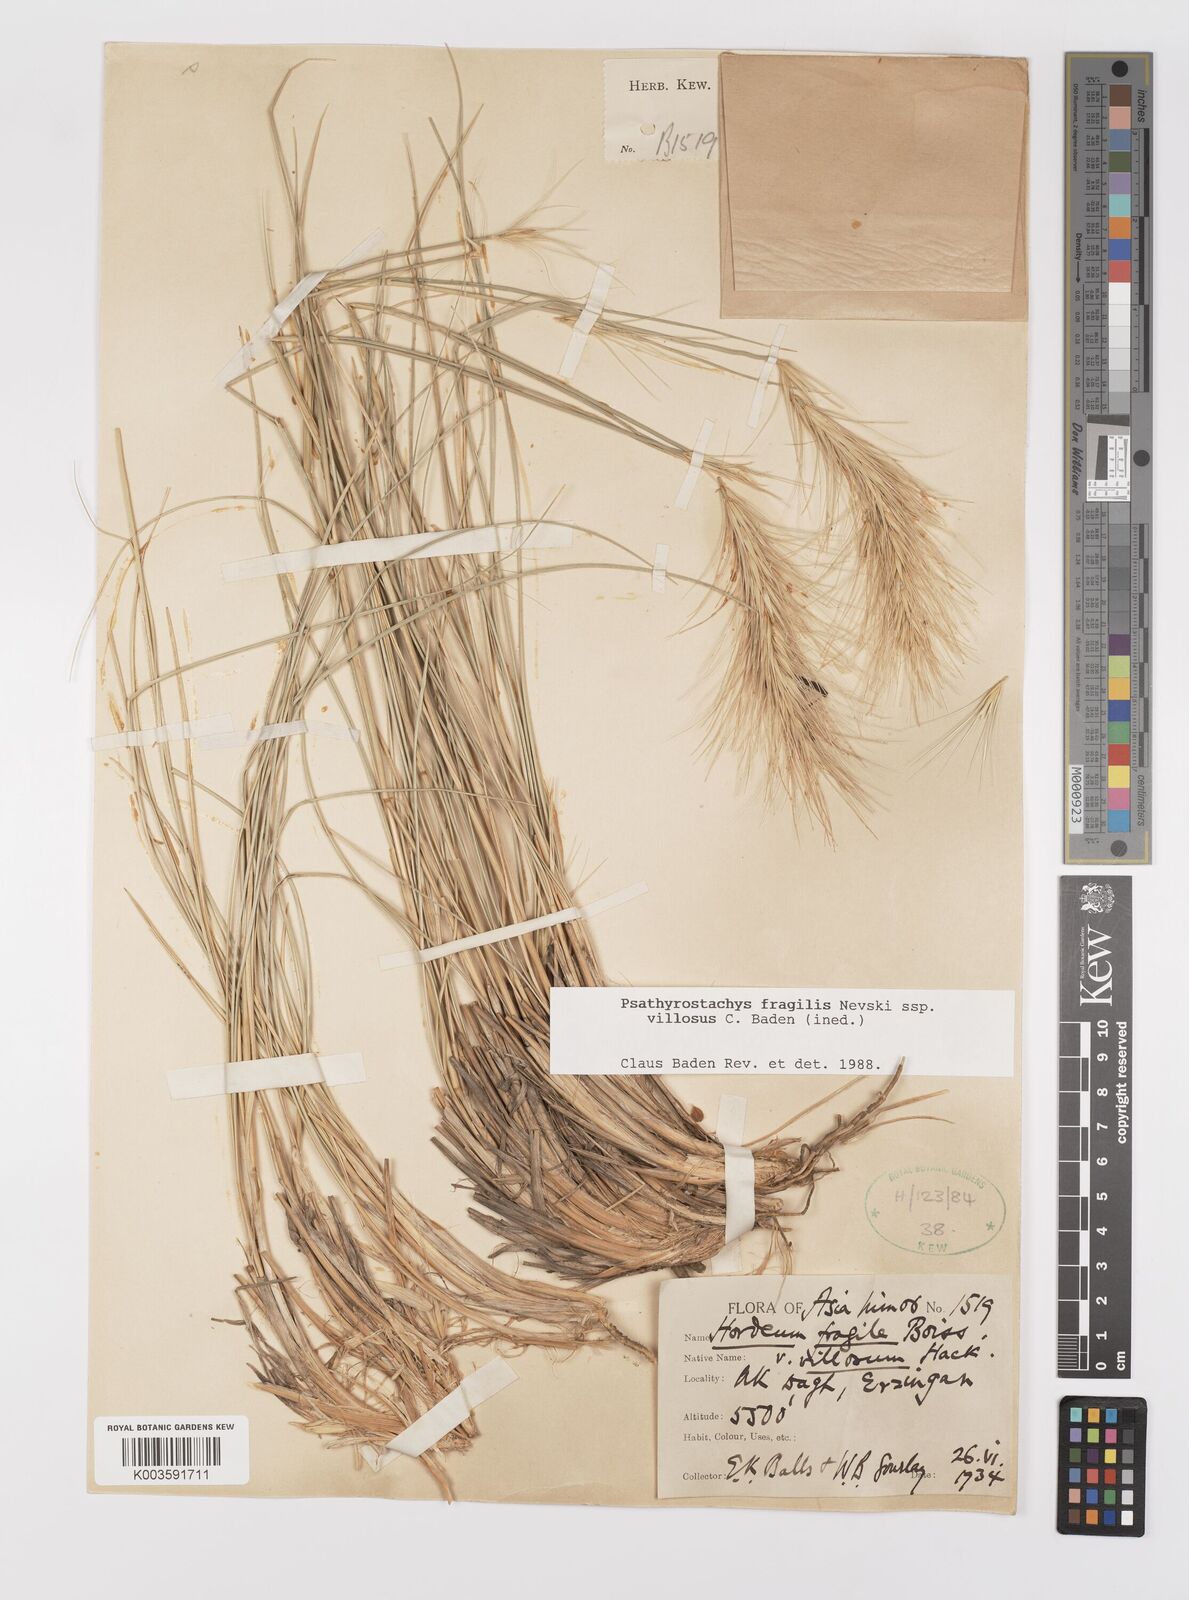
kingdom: Plantae
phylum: Tracheophyta
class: Liliopsida
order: Poales
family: Poaceae
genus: Psathyrostachys
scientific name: Psathyrostachys fragilis
